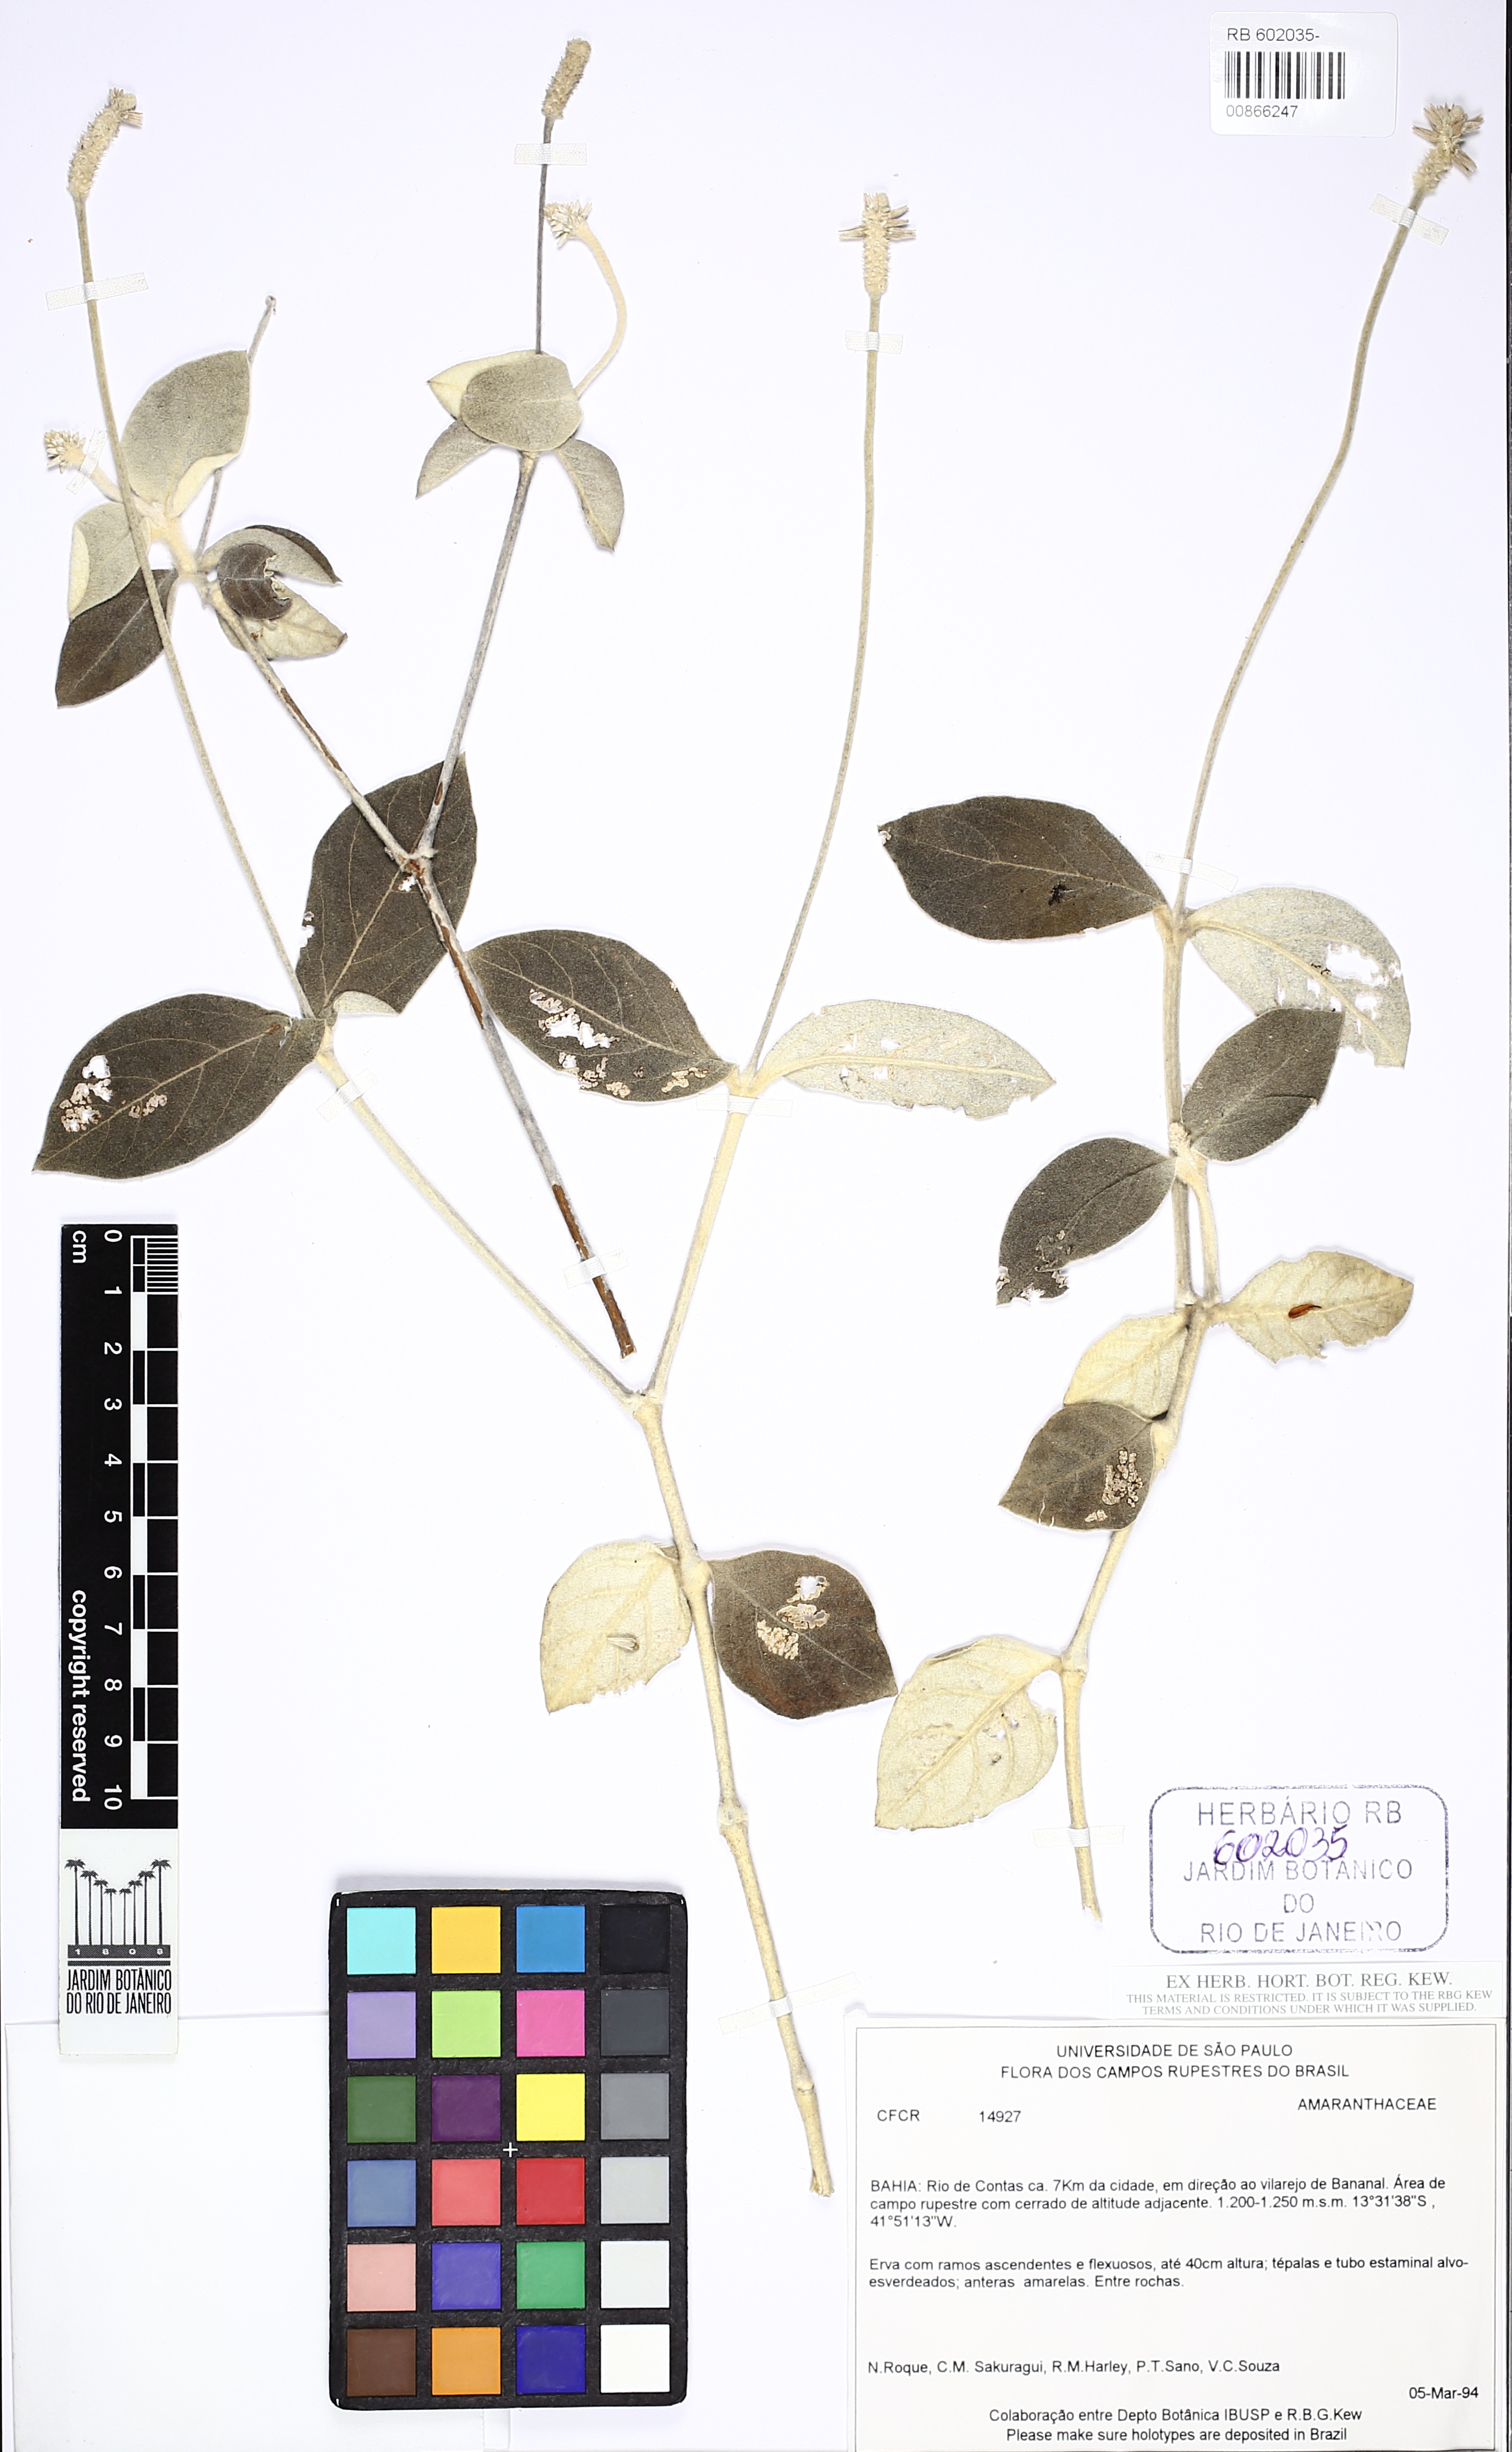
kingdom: Plantae
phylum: Tracheophyta
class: Magnoliopsida
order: Caryophyllales
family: Amaranthaceae
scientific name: Amaranthaceae
